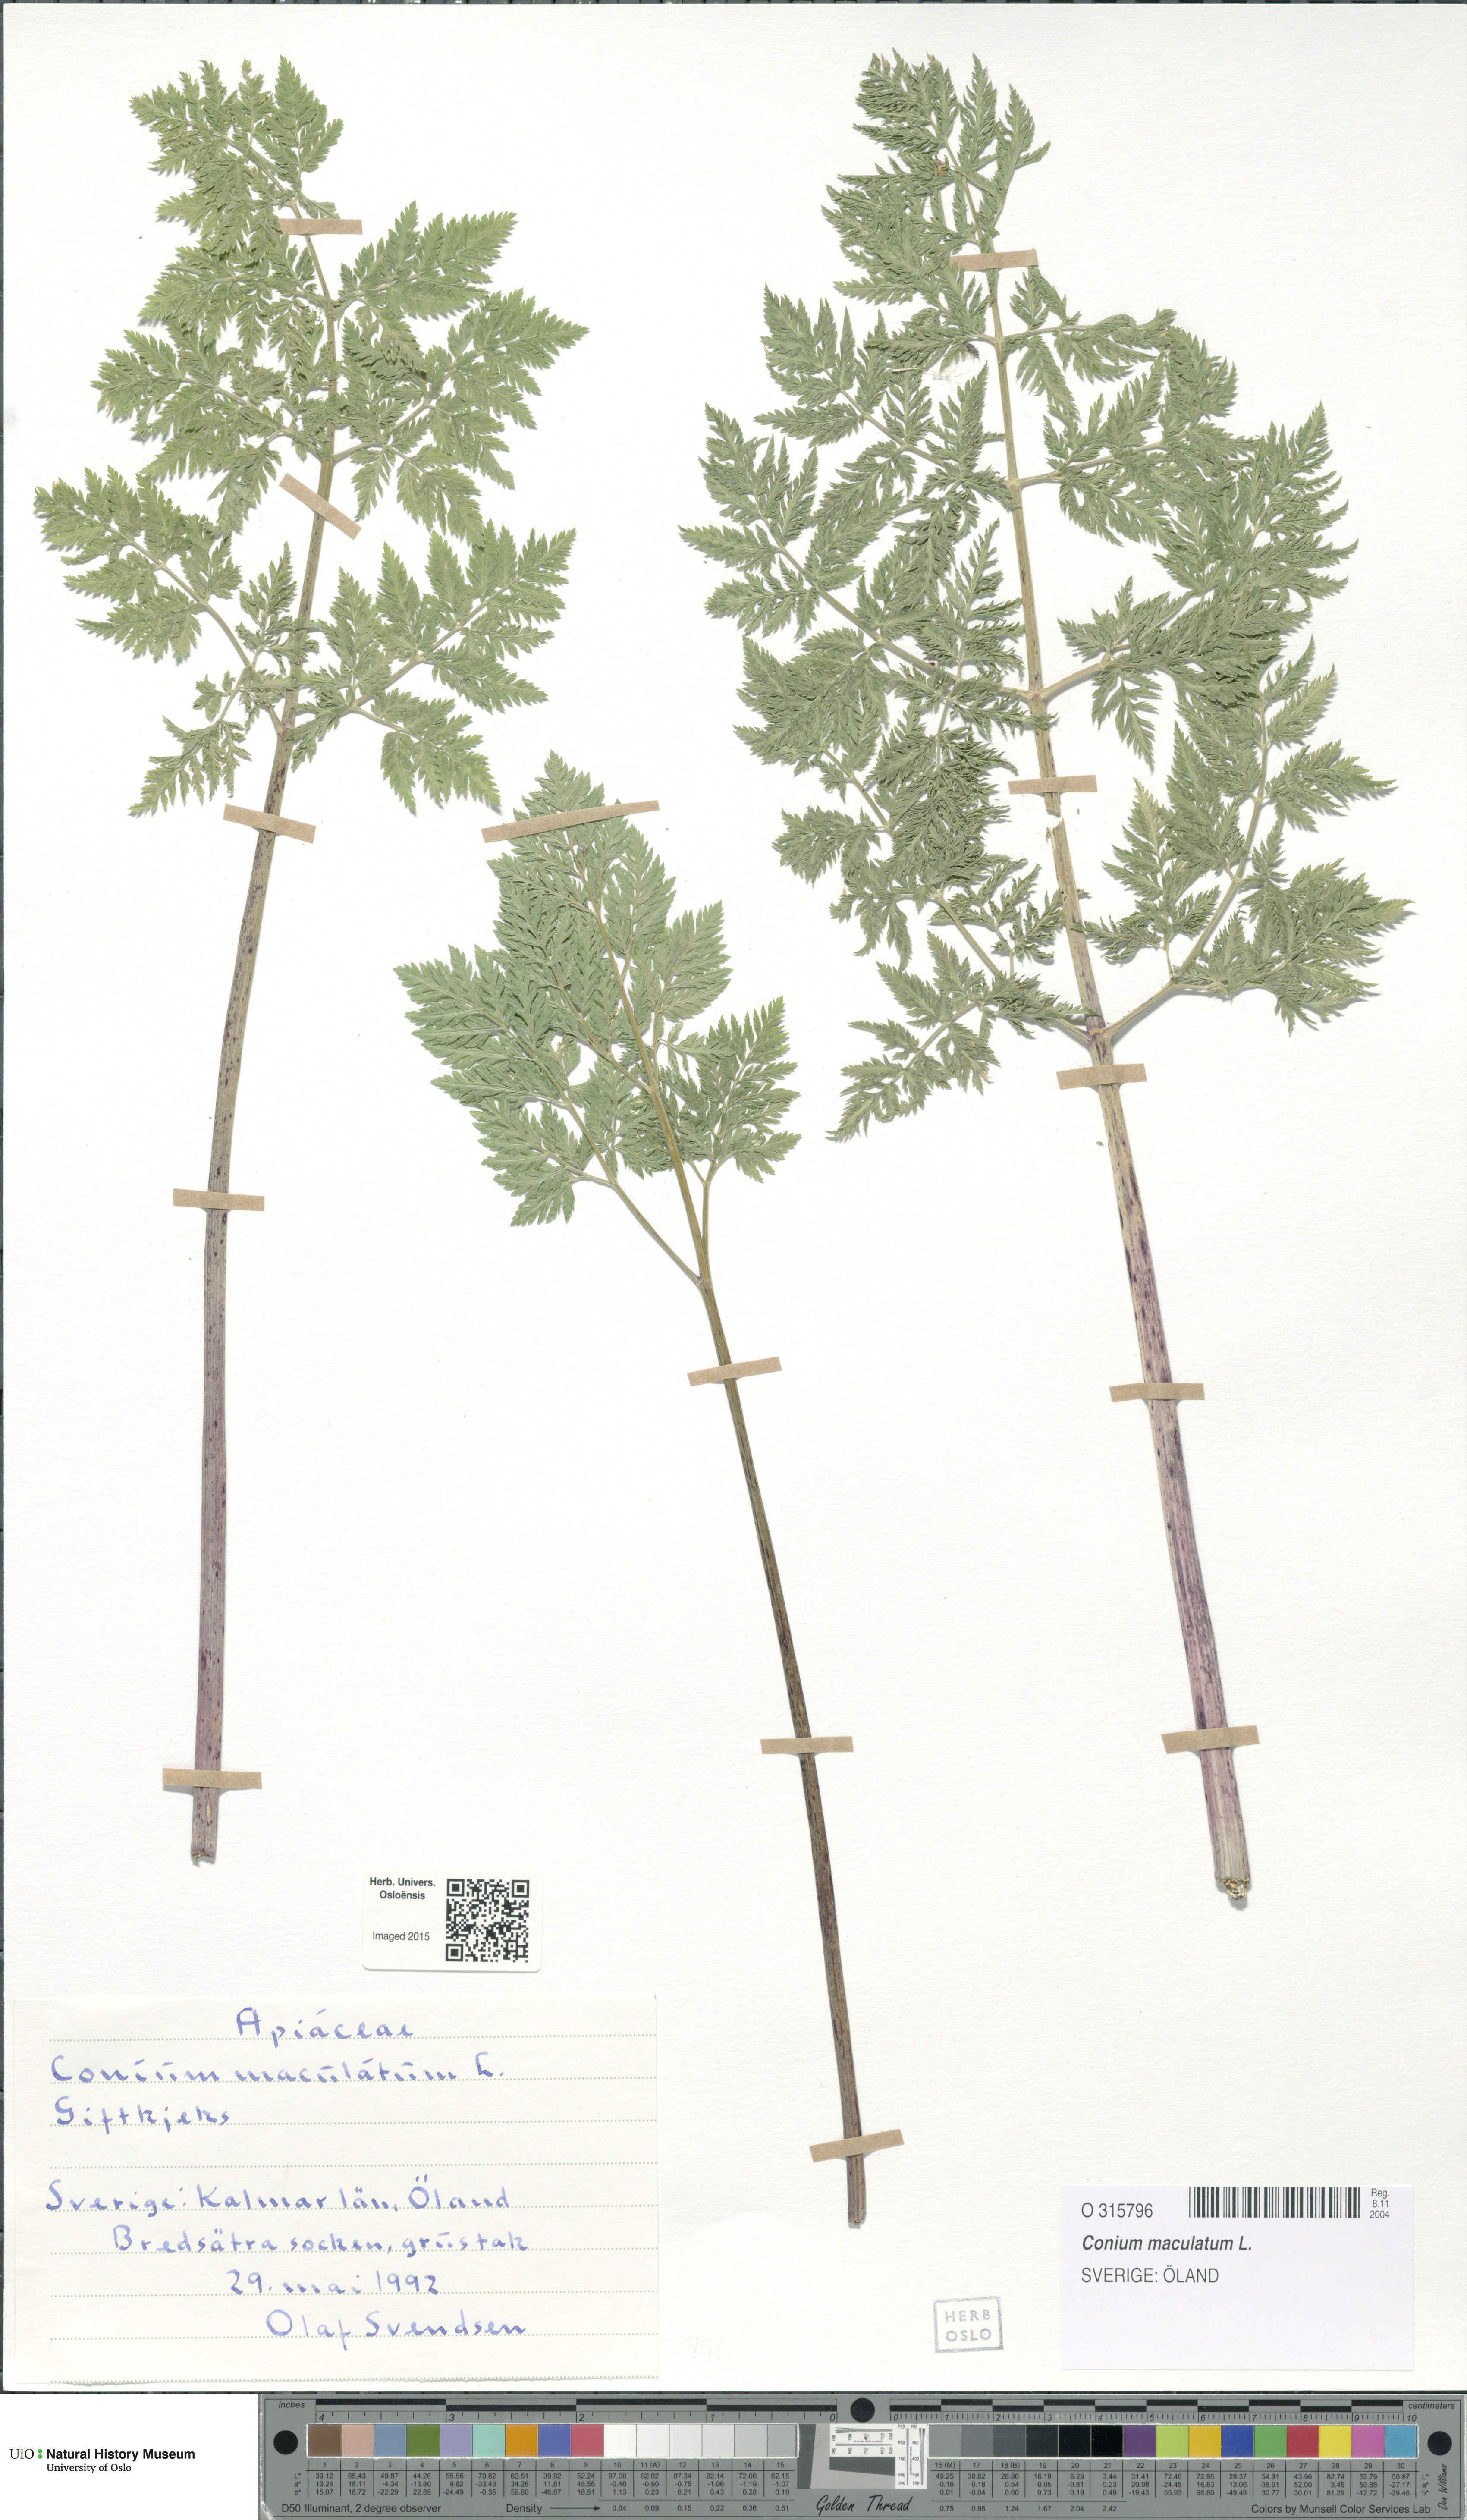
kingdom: Plantae
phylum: Tracheophyta
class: Magnoliopsida
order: Apiales
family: Apiaceae
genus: Conium
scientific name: Conium maculatum
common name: Hemlock
